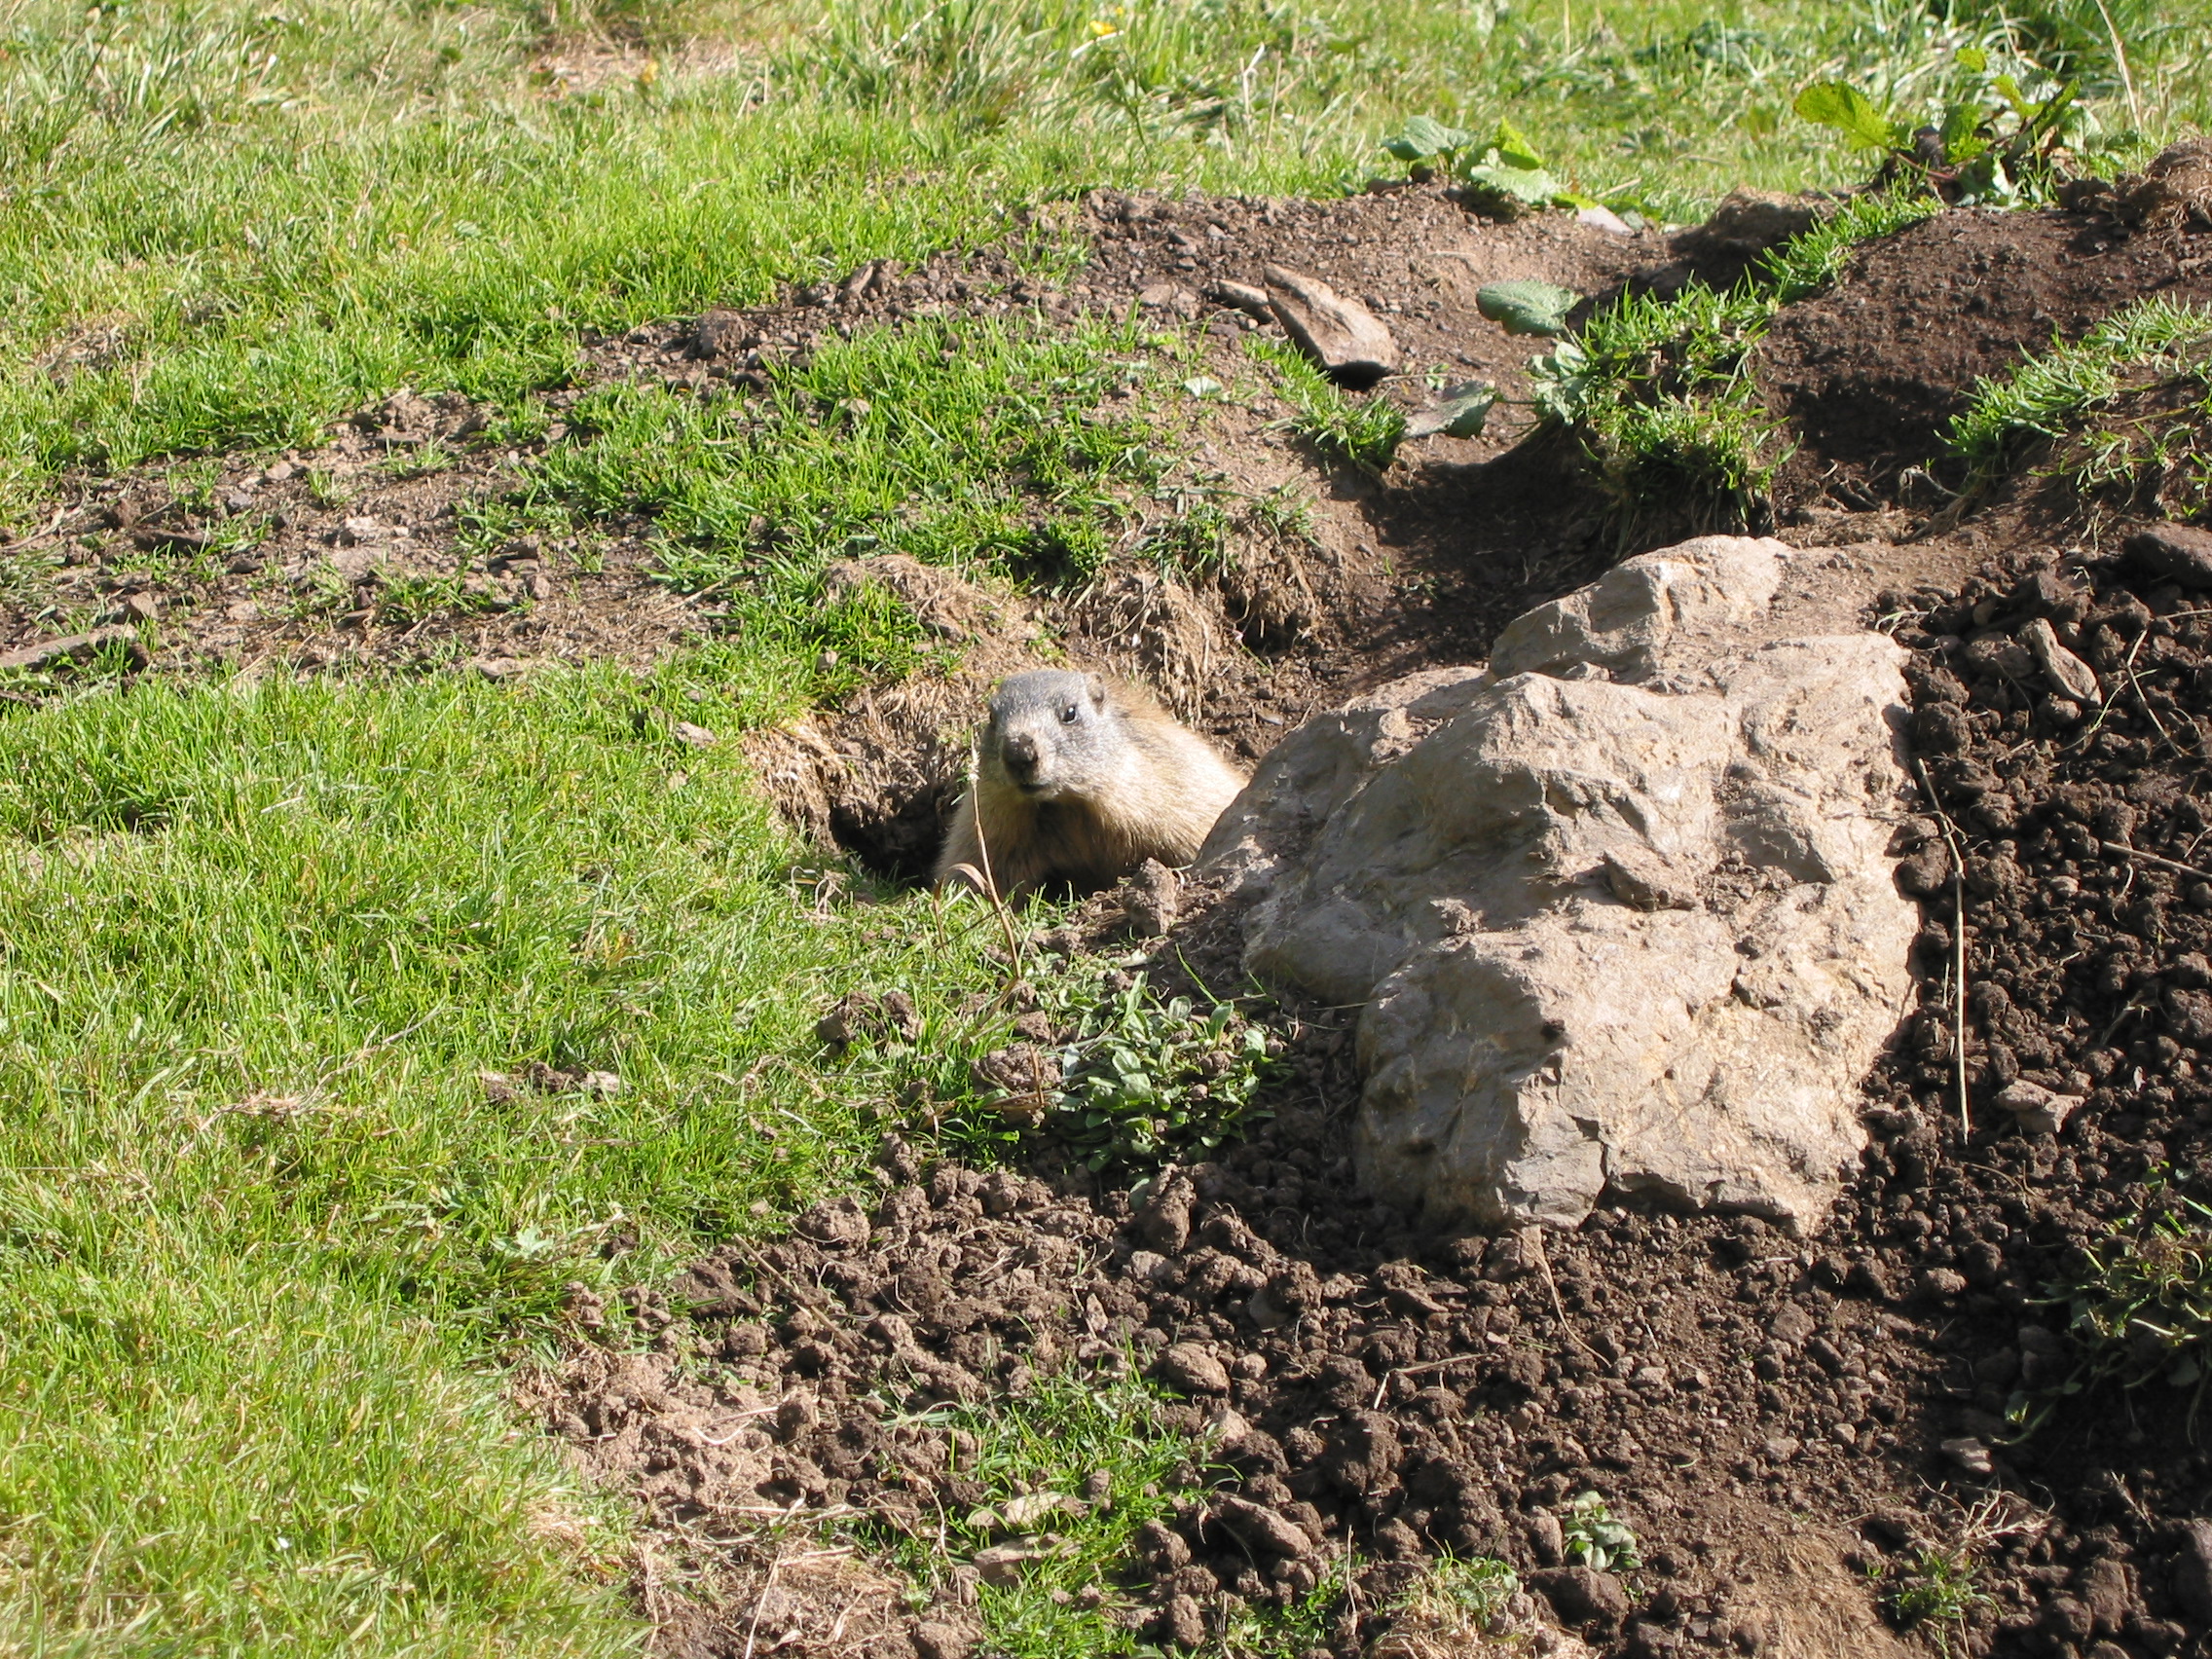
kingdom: Animalia
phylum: Chordata
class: Mammalia
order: Rodentia
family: Sciuridae
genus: Marmota
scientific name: Marmota marmota
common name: Alpine marmot
